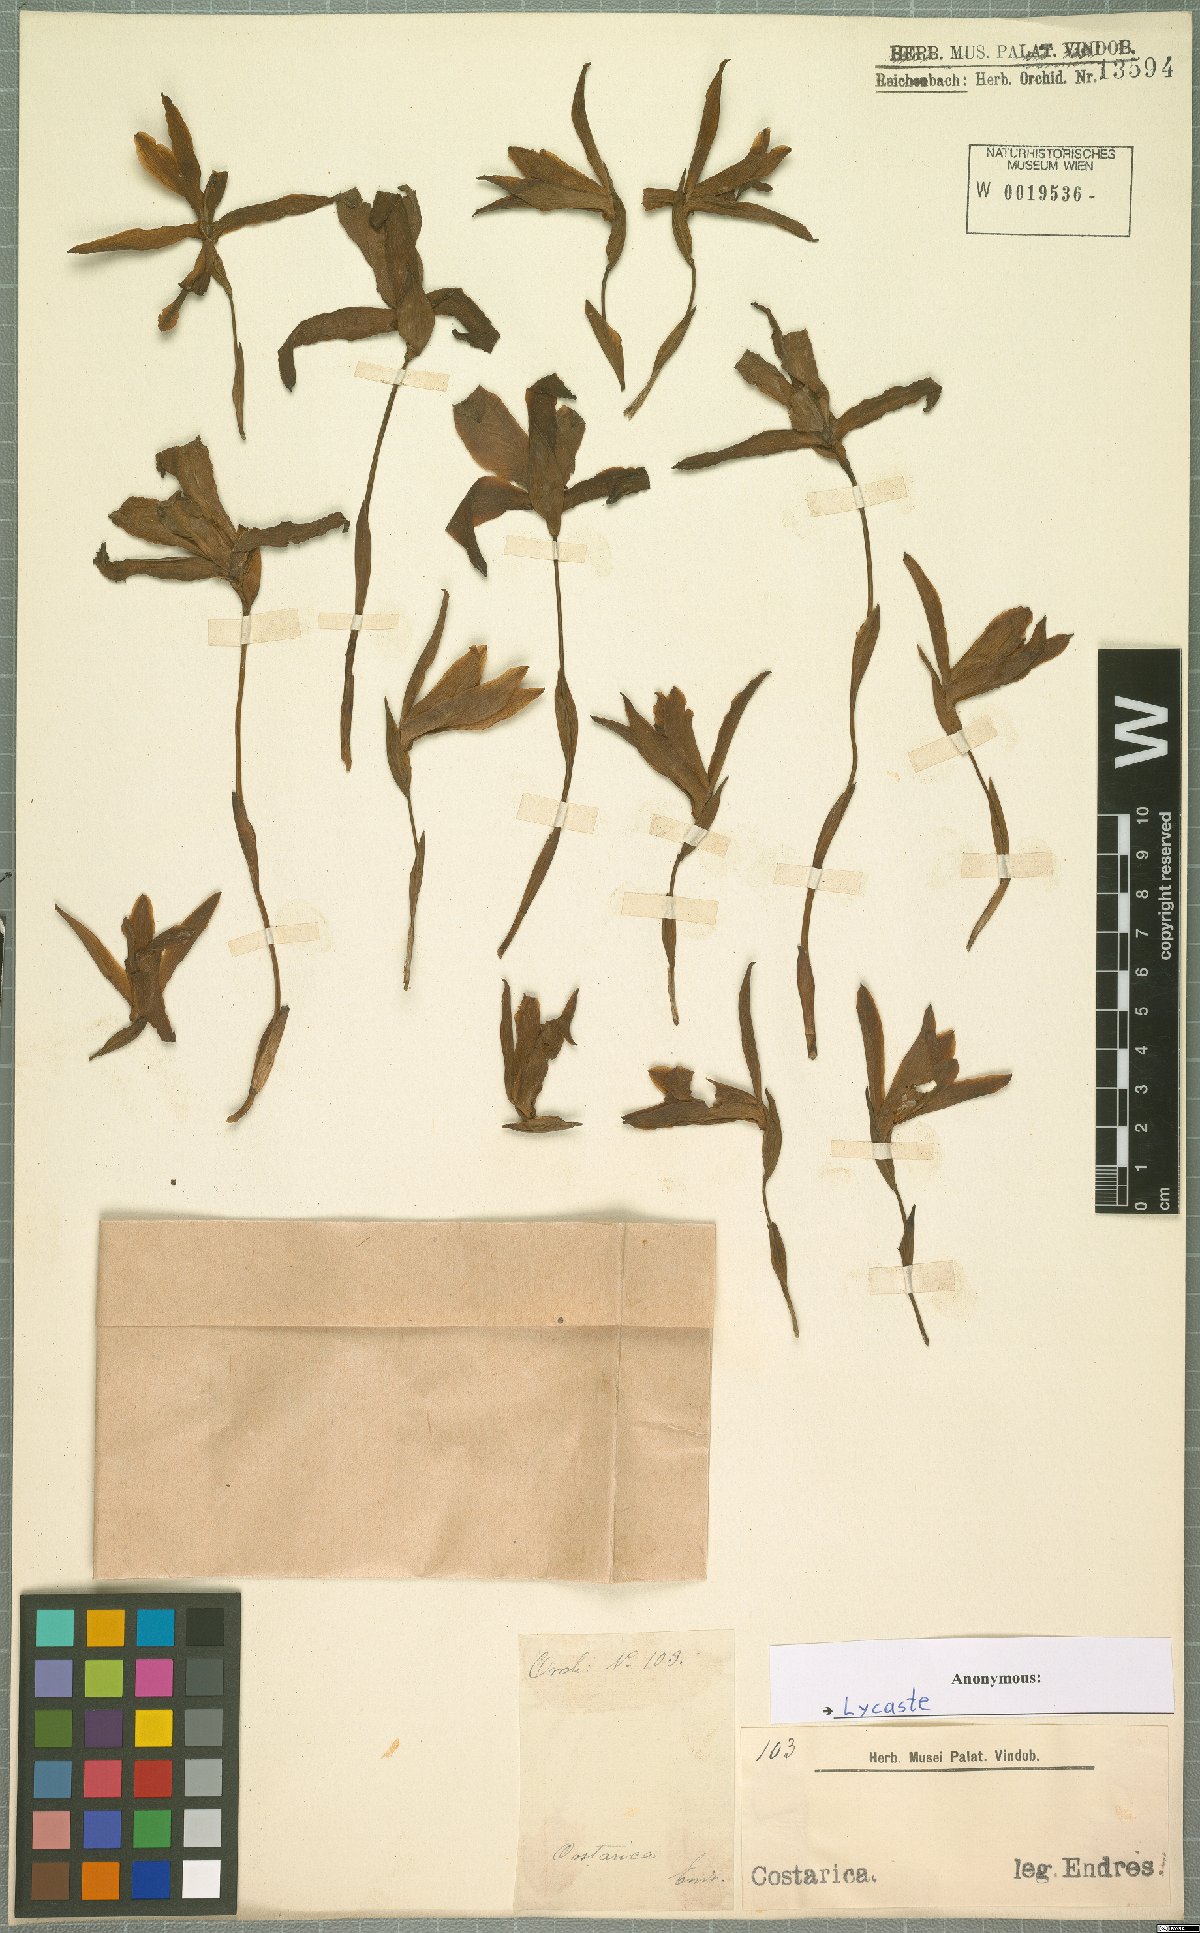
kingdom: Plantae
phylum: Tracheophyta
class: Liliopsida
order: Asparagales
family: Orchidaceae
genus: Lycaste
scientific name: Lycaste
